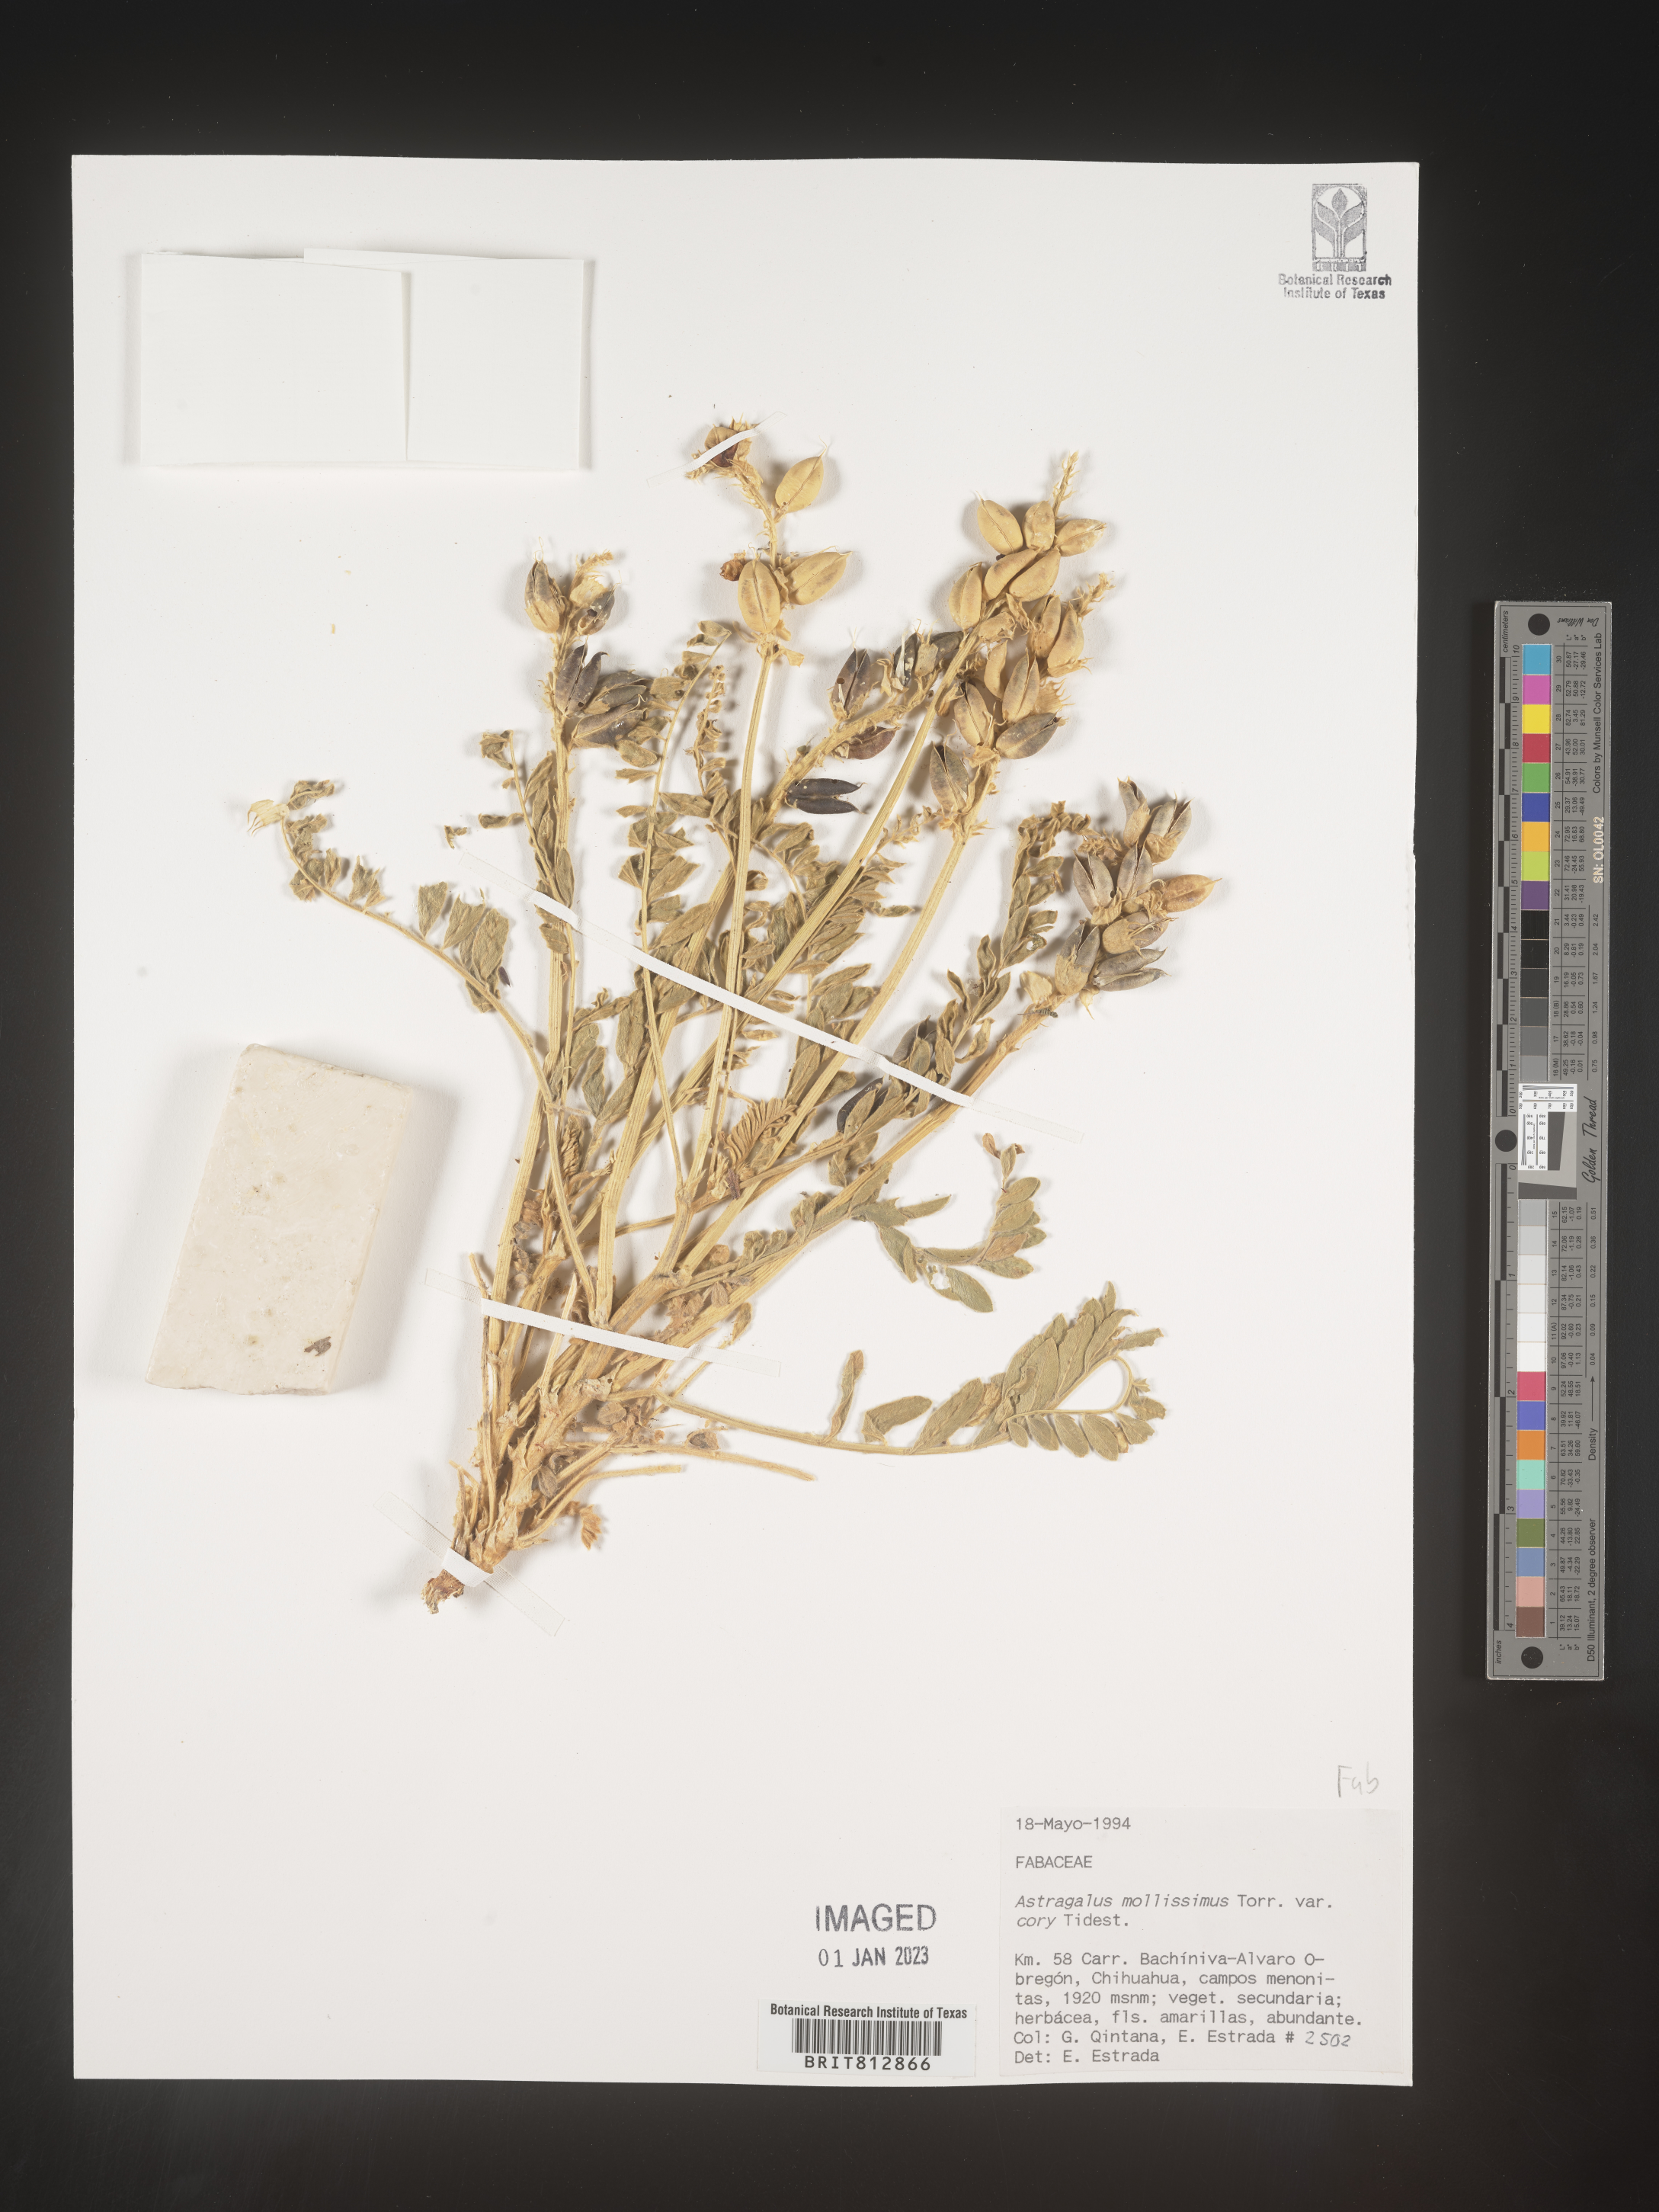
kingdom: Plantae
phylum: Tracheophyta
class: Magnoliopsida
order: Fabales
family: Fabaceae
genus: Astragalus
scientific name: Astragalus
